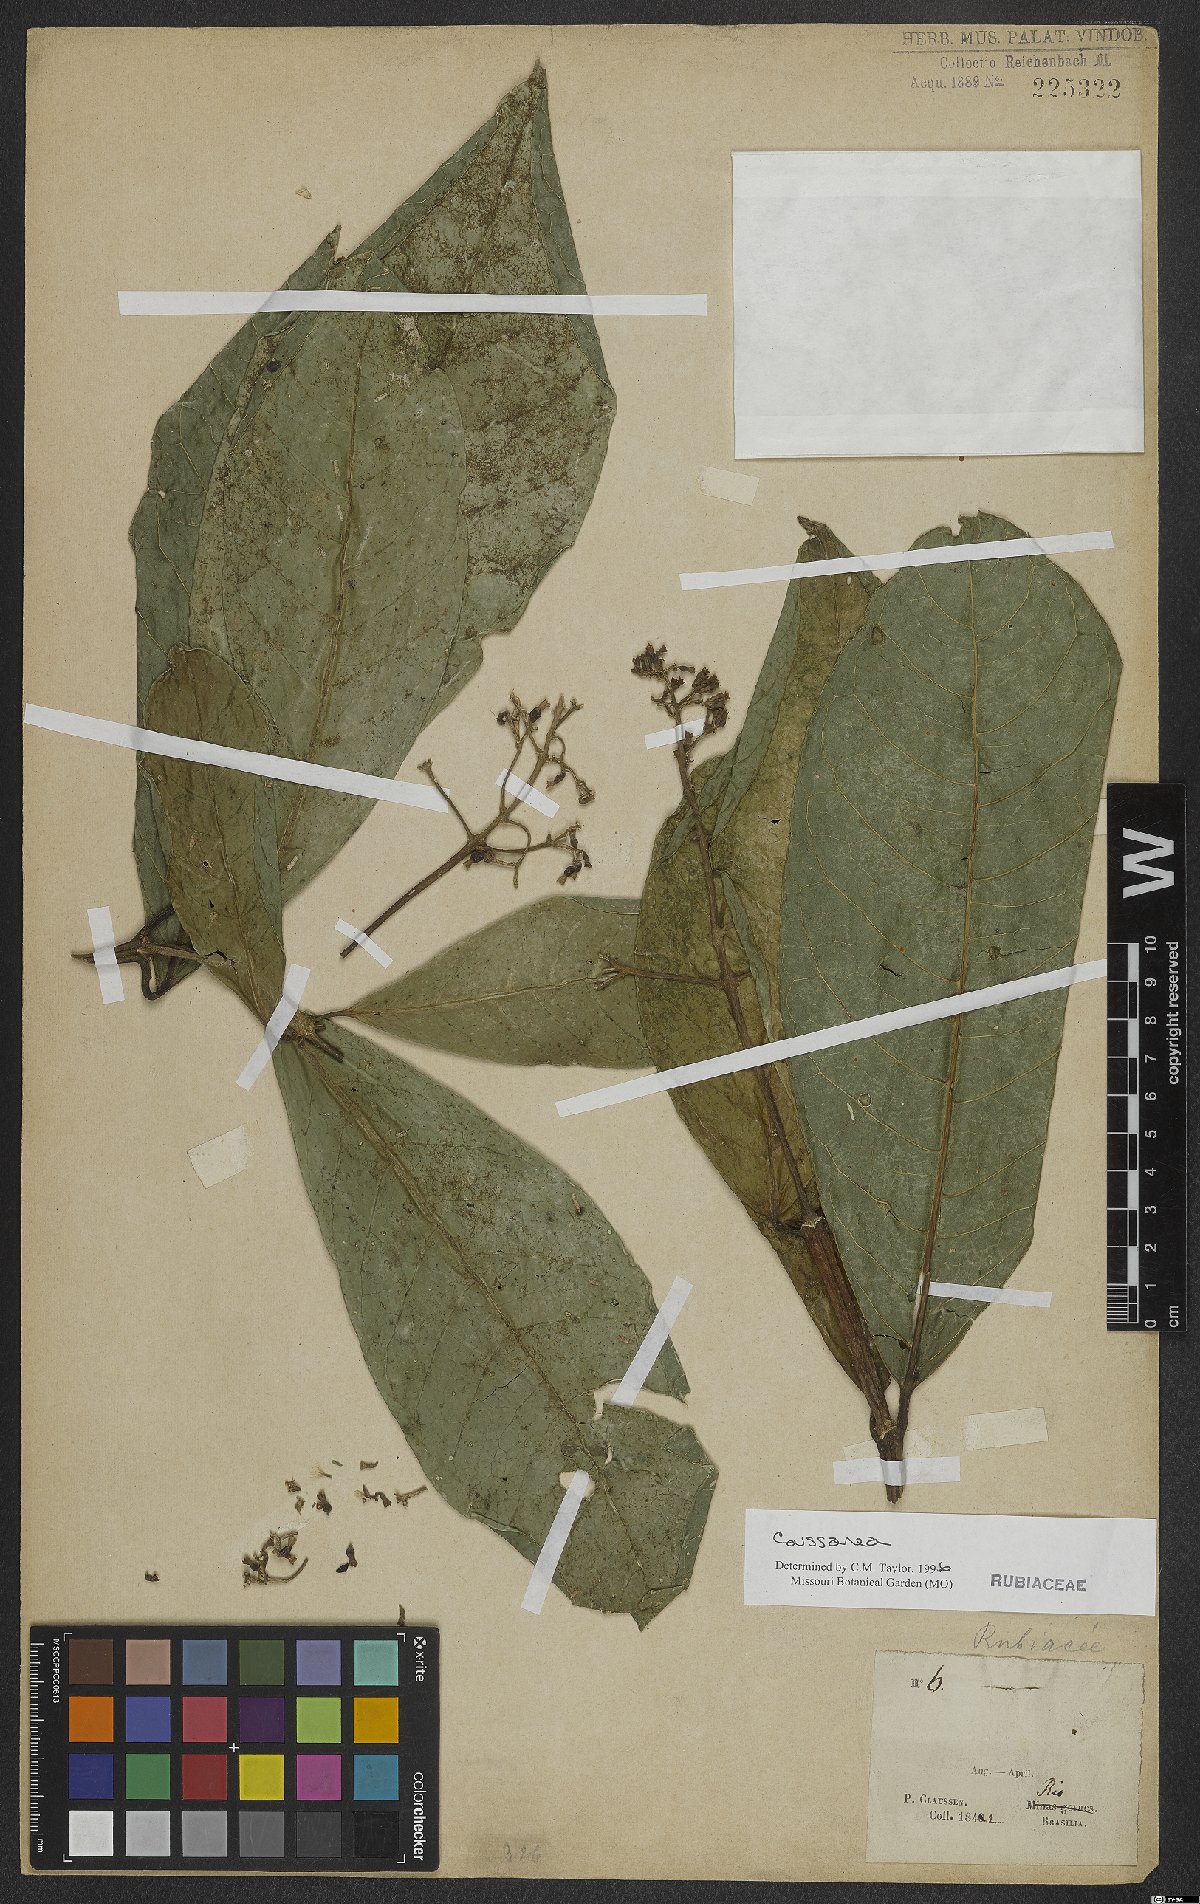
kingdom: Plantae
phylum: Tracheophyta
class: Magnoliopsida
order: Gentianales
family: Rubiaceae
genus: Coussarea
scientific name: Coussarea
